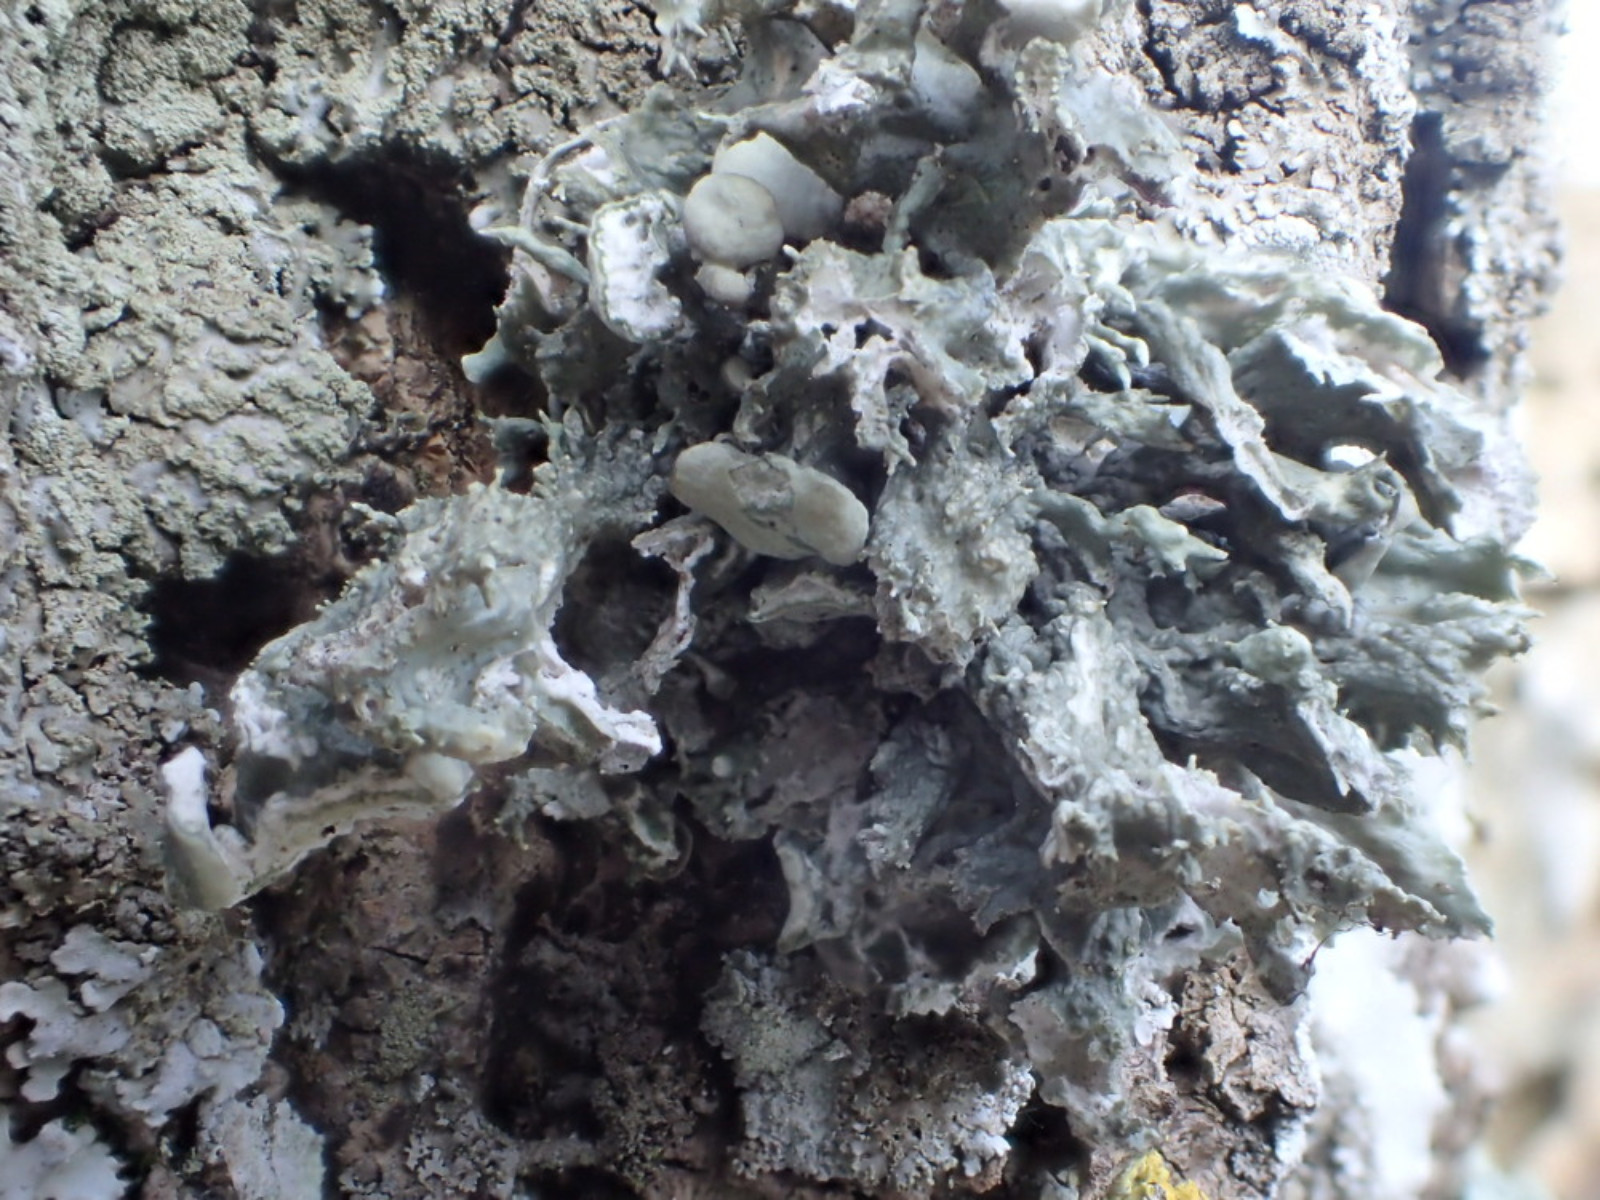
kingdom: Fungi
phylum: Ascomycota
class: Lecanoromycetes
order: Lecanorales
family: Ramalinaceae
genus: Ramalina
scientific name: Ramalina fastigiata
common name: tue-grenlav
